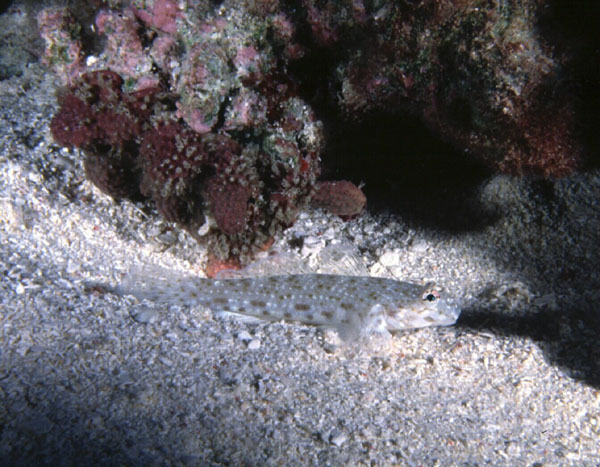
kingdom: Animalia
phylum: Chordata
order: Perciformes
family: Gobiidae
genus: Istigobius
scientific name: Istigobius rigilius
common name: Rigilius goby
